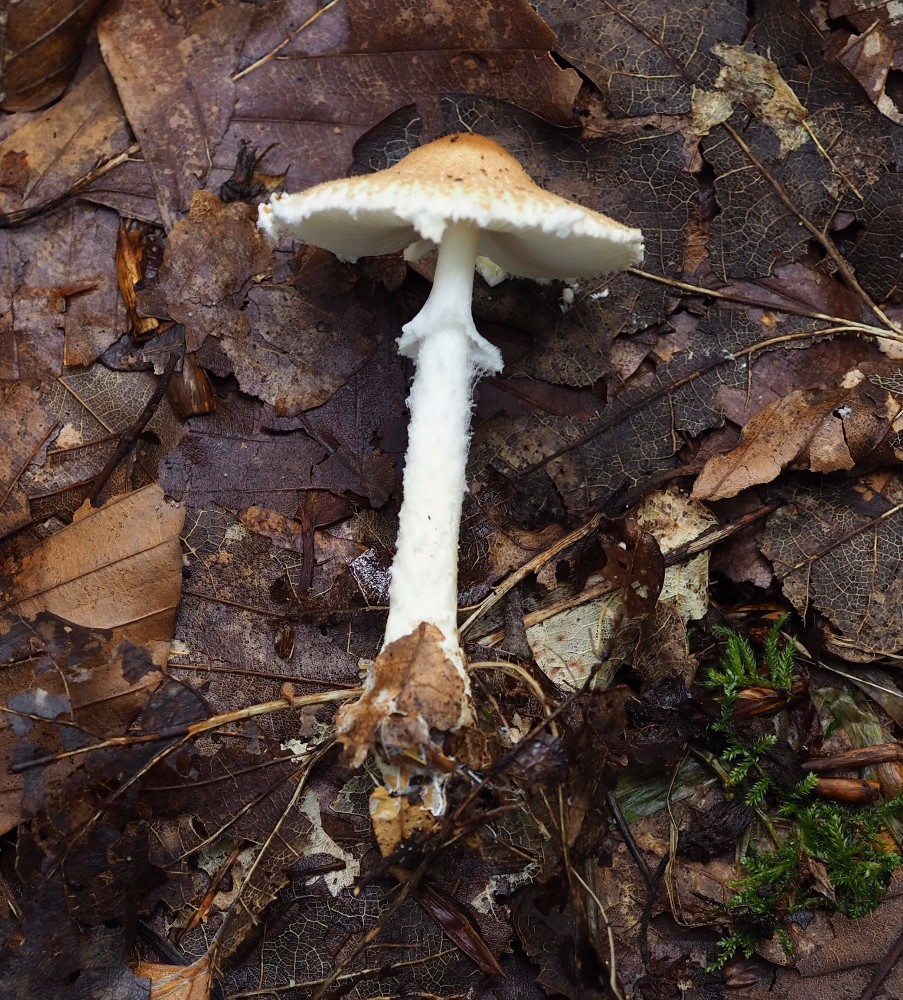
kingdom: Fungi
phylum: Basidiomycota
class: Agaricomycetes
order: Agaricales
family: Agaricaceae
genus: Lepiota
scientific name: Lepiota clypeolaria
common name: flosset parasolhat
